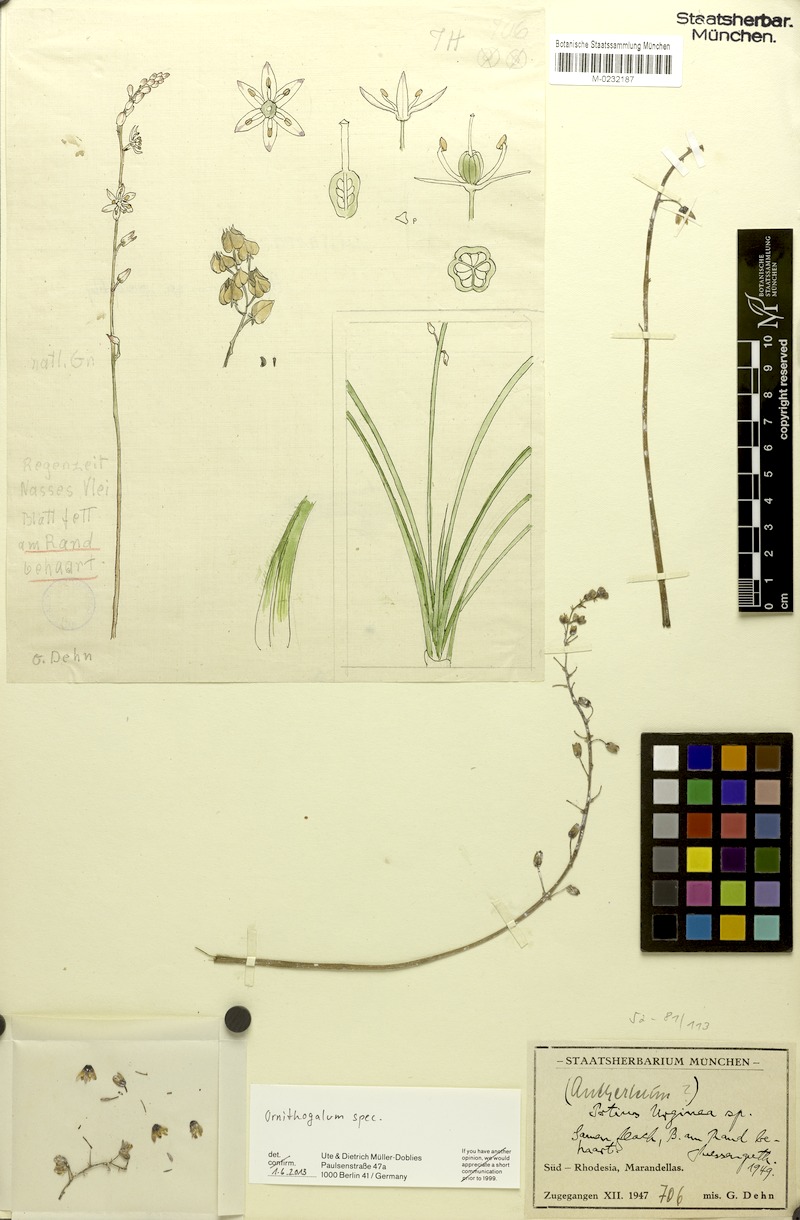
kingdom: Plantae
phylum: Tracheophyta
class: Liliopsida
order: Asparagales
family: Asparagaceae
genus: Ornithogalum
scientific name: Ornithogalum
